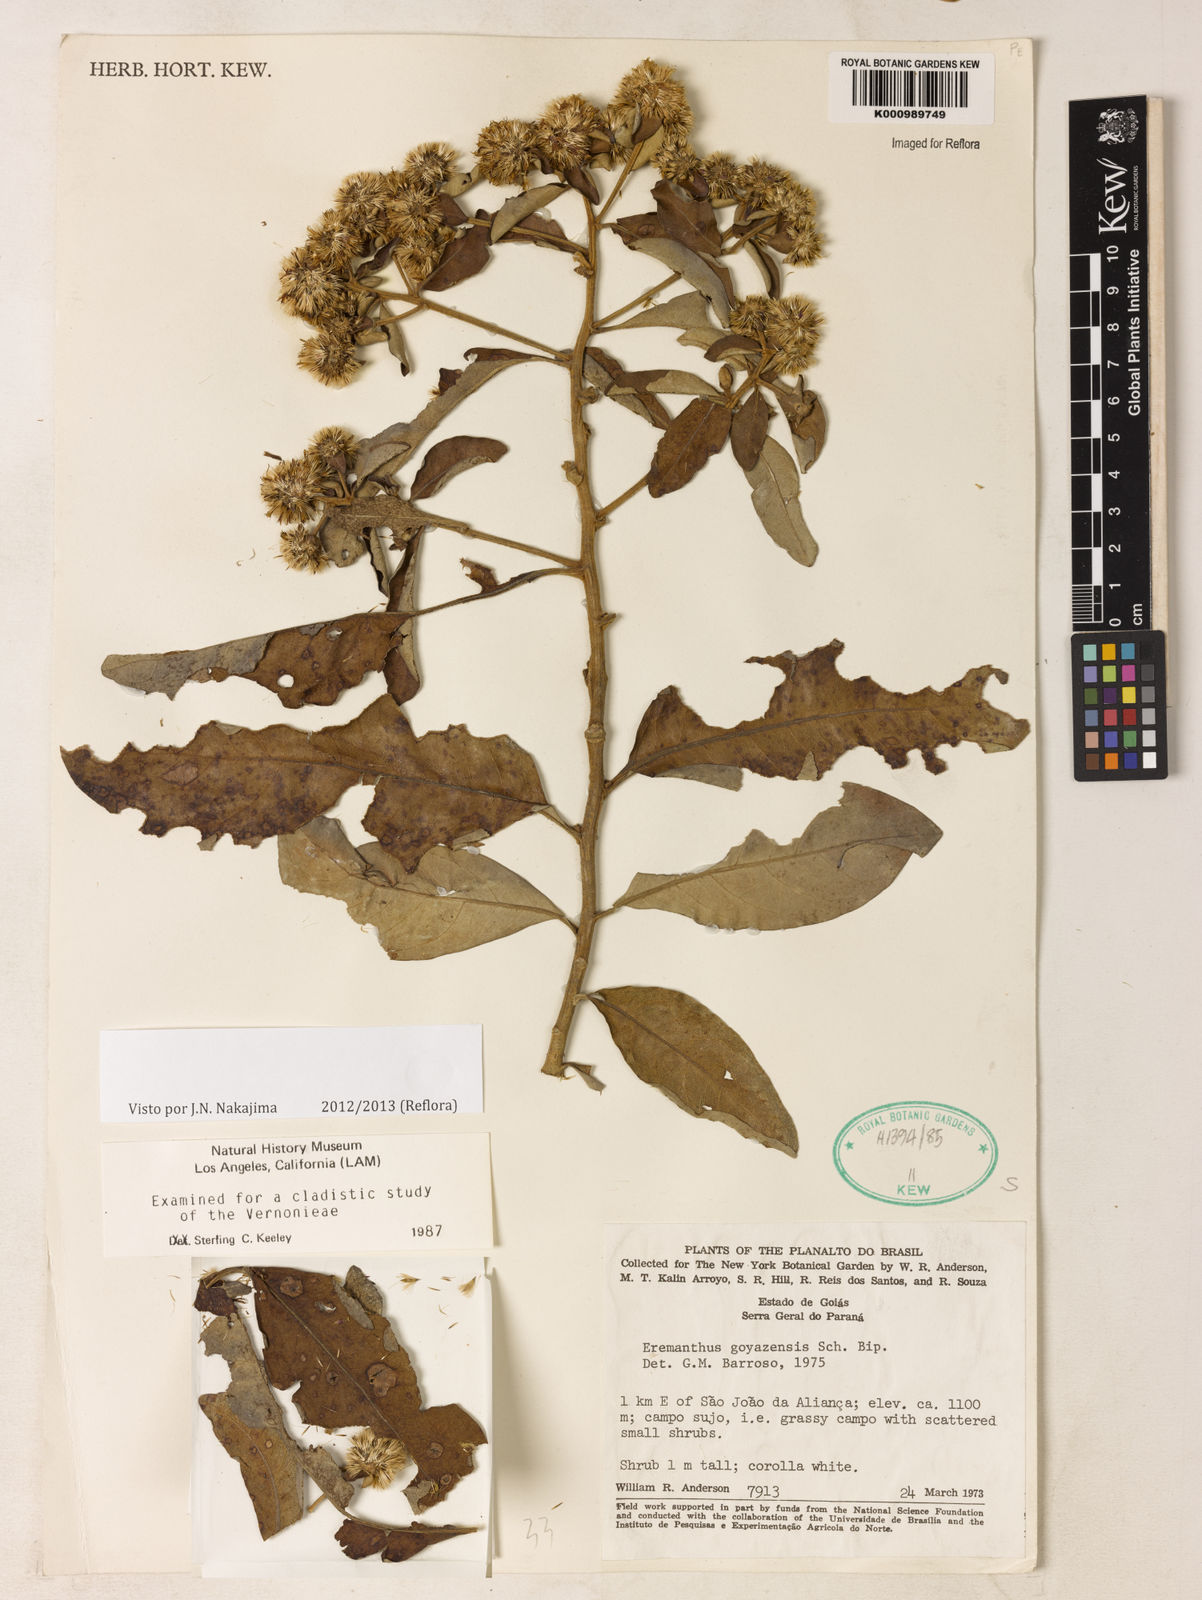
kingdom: Plantae
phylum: Tracheophyta
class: Magnoliopsida
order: Asterales
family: Asteraceae
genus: Eremanthus
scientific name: Eremanthus goyazensis
